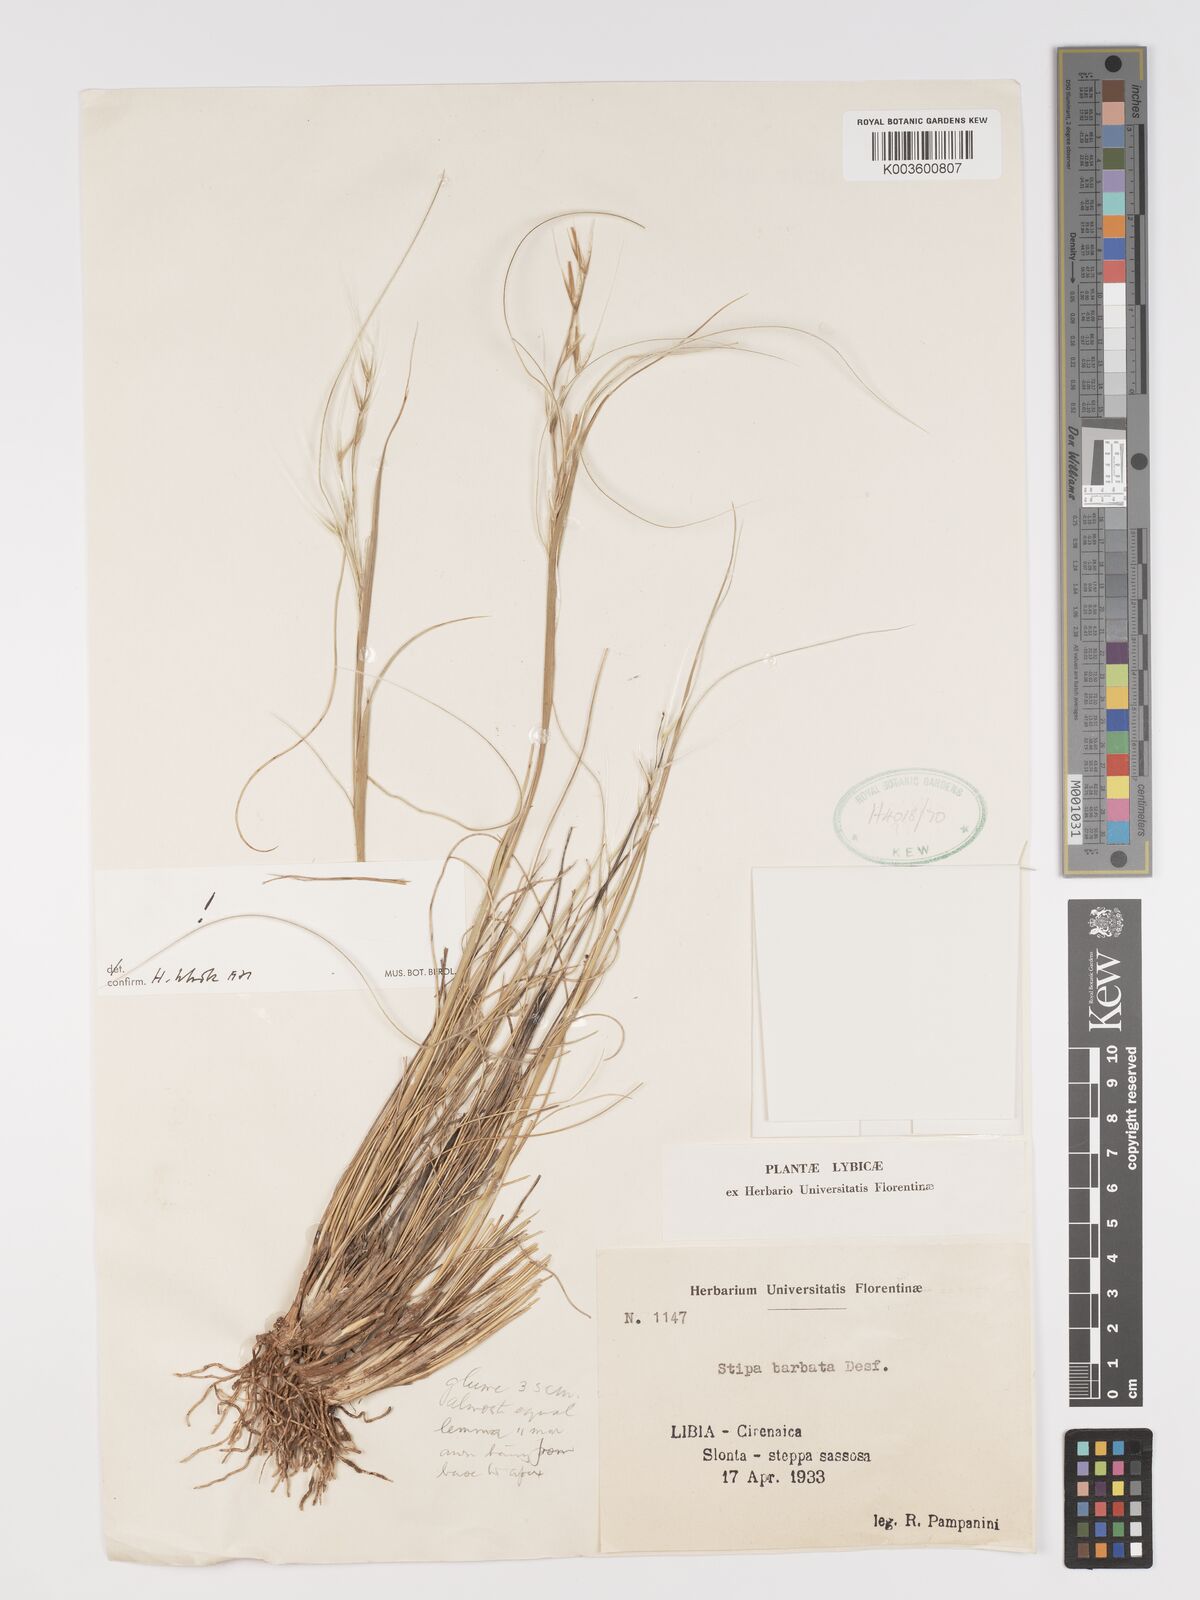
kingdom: Plantae
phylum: Tracheophyta
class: Liliopsida
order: Poales
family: Poaceae
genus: Stipa
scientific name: Stipa barbata
